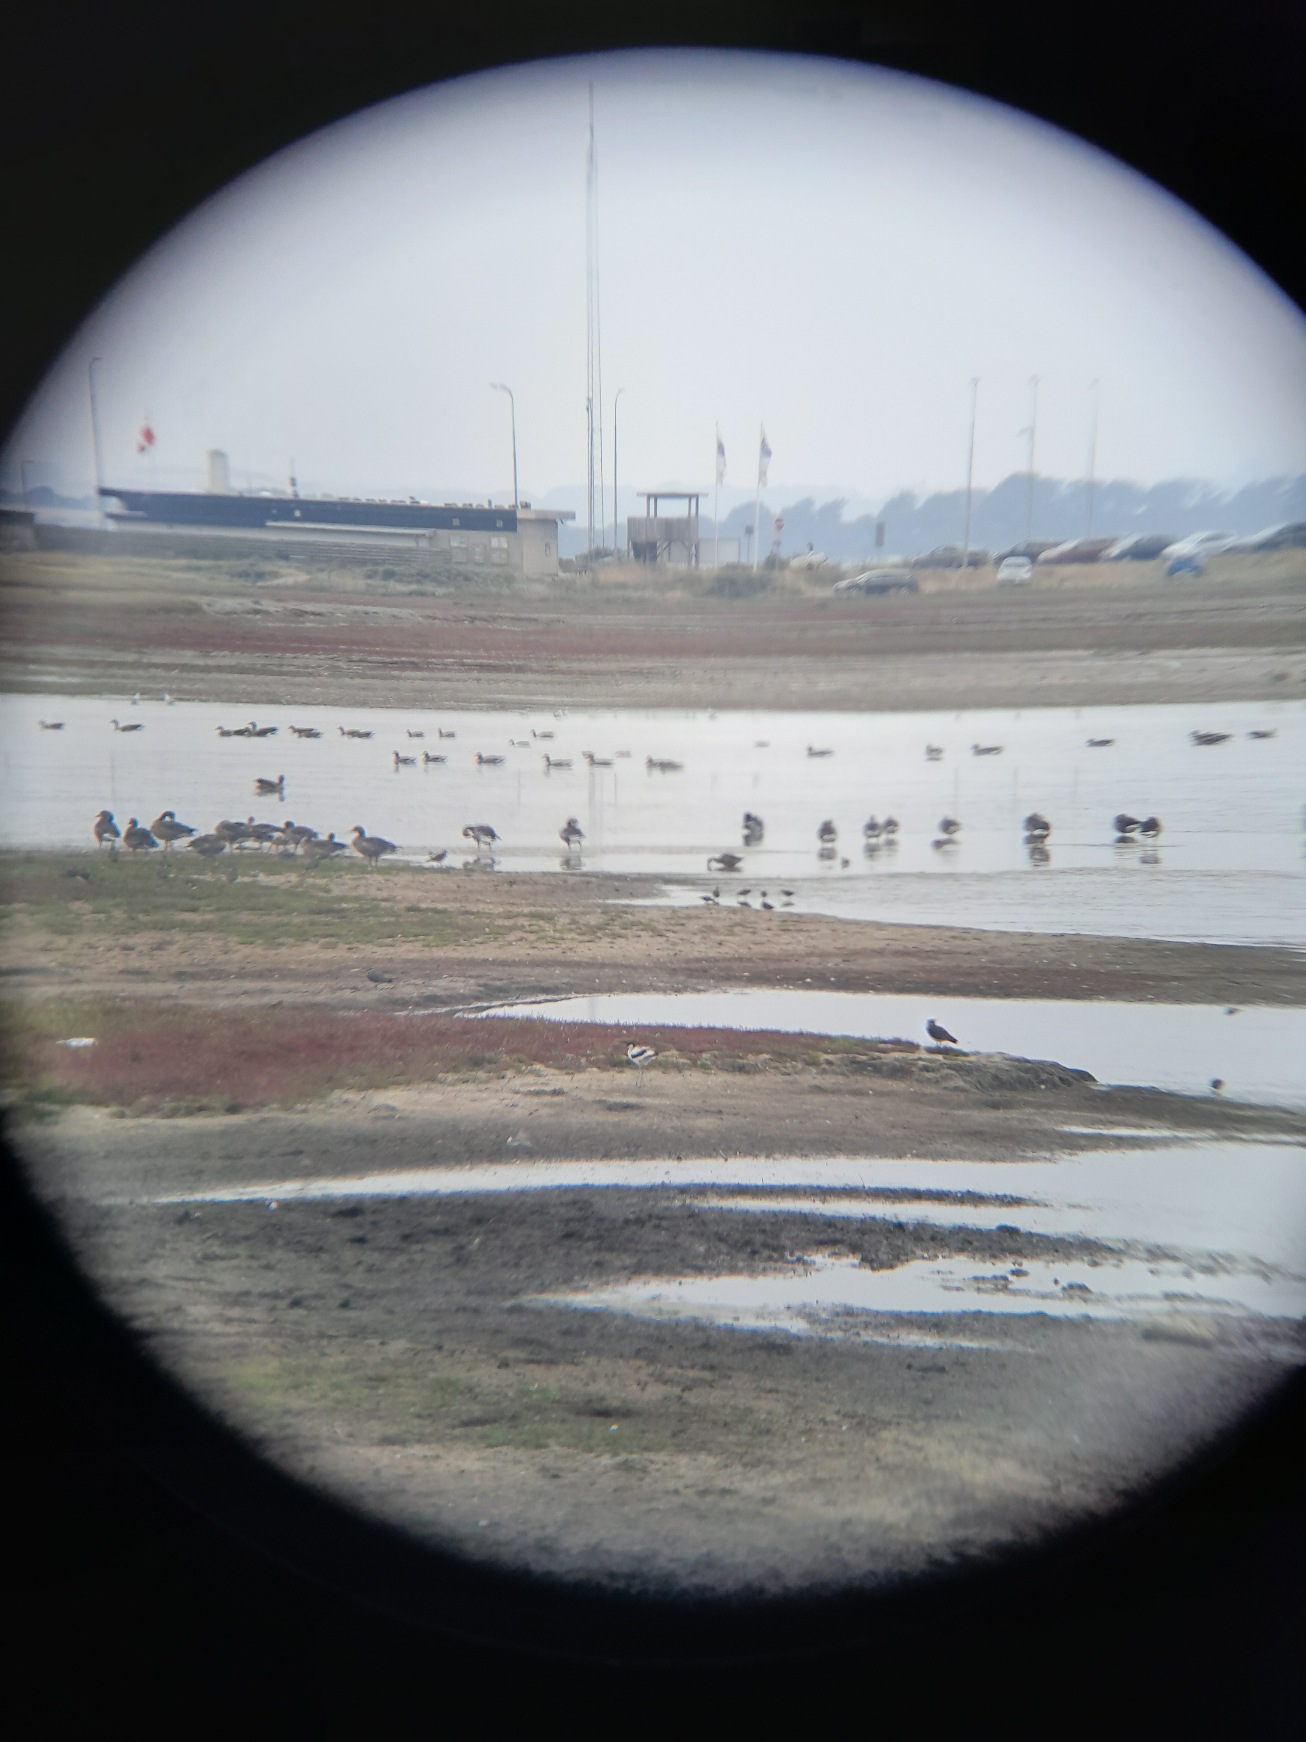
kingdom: Animalia
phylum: Chordata
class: Aves
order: Charadriiformes
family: Recurvirostridae
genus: Recurvirostra
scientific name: Recurvirostra avosetta
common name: Klyde
